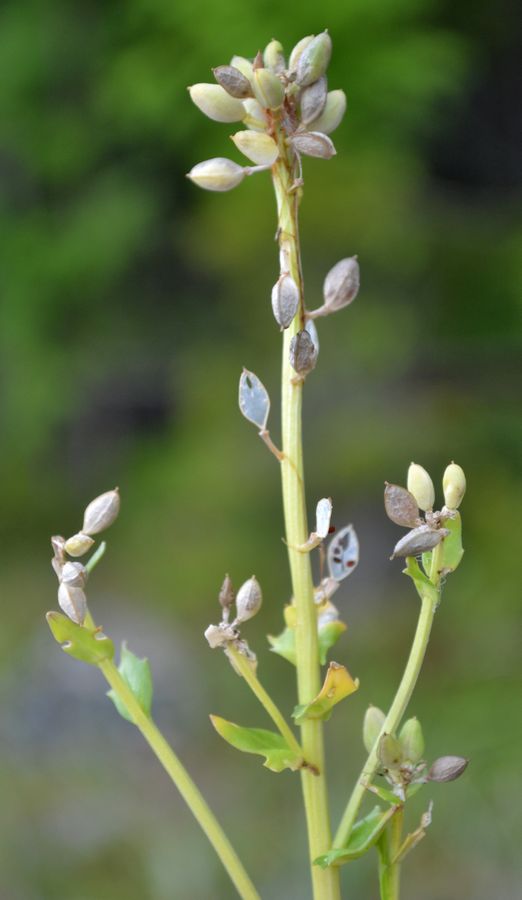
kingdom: Plantae
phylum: Tracheophyta
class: Magnoliopsida
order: Brassicales
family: Brassicaceae
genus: Cochlearia
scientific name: Cochlearia officinalis
